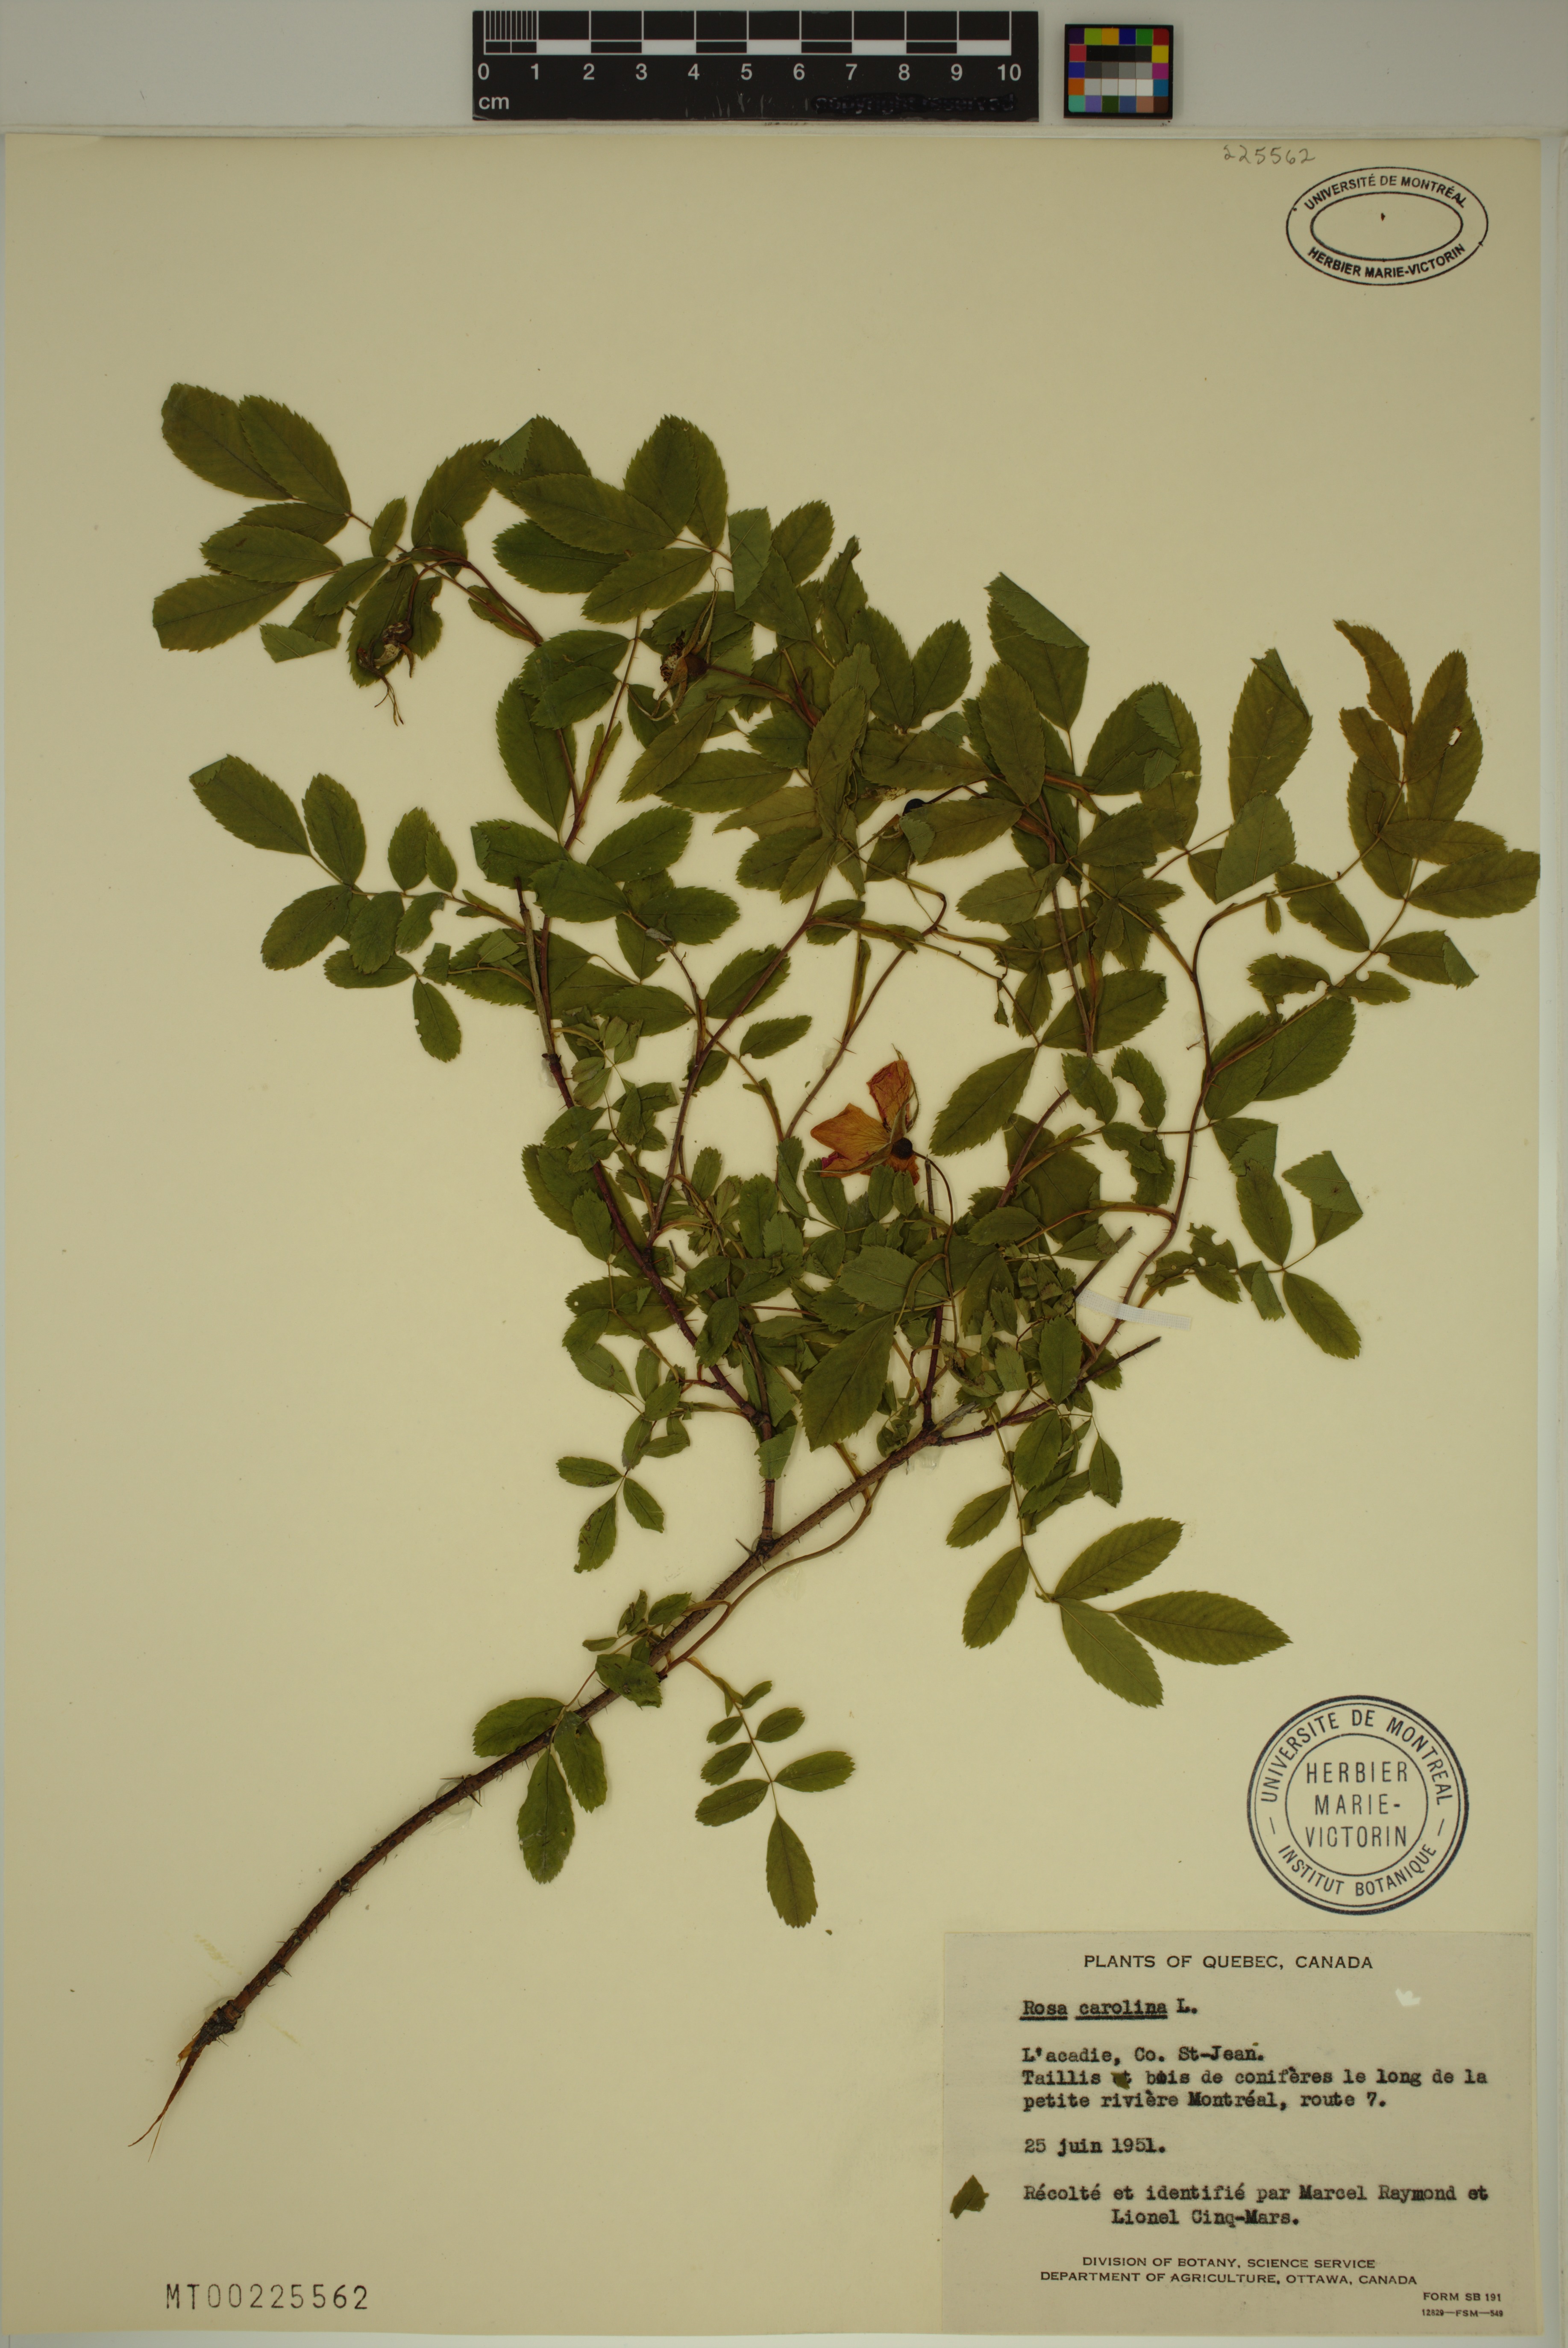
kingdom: Plantae
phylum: Tracheophyta
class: Magnoliopsida
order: Rosales
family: Rosaceae
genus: Rosa
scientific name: Rosa carolina
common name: Pasture rose
